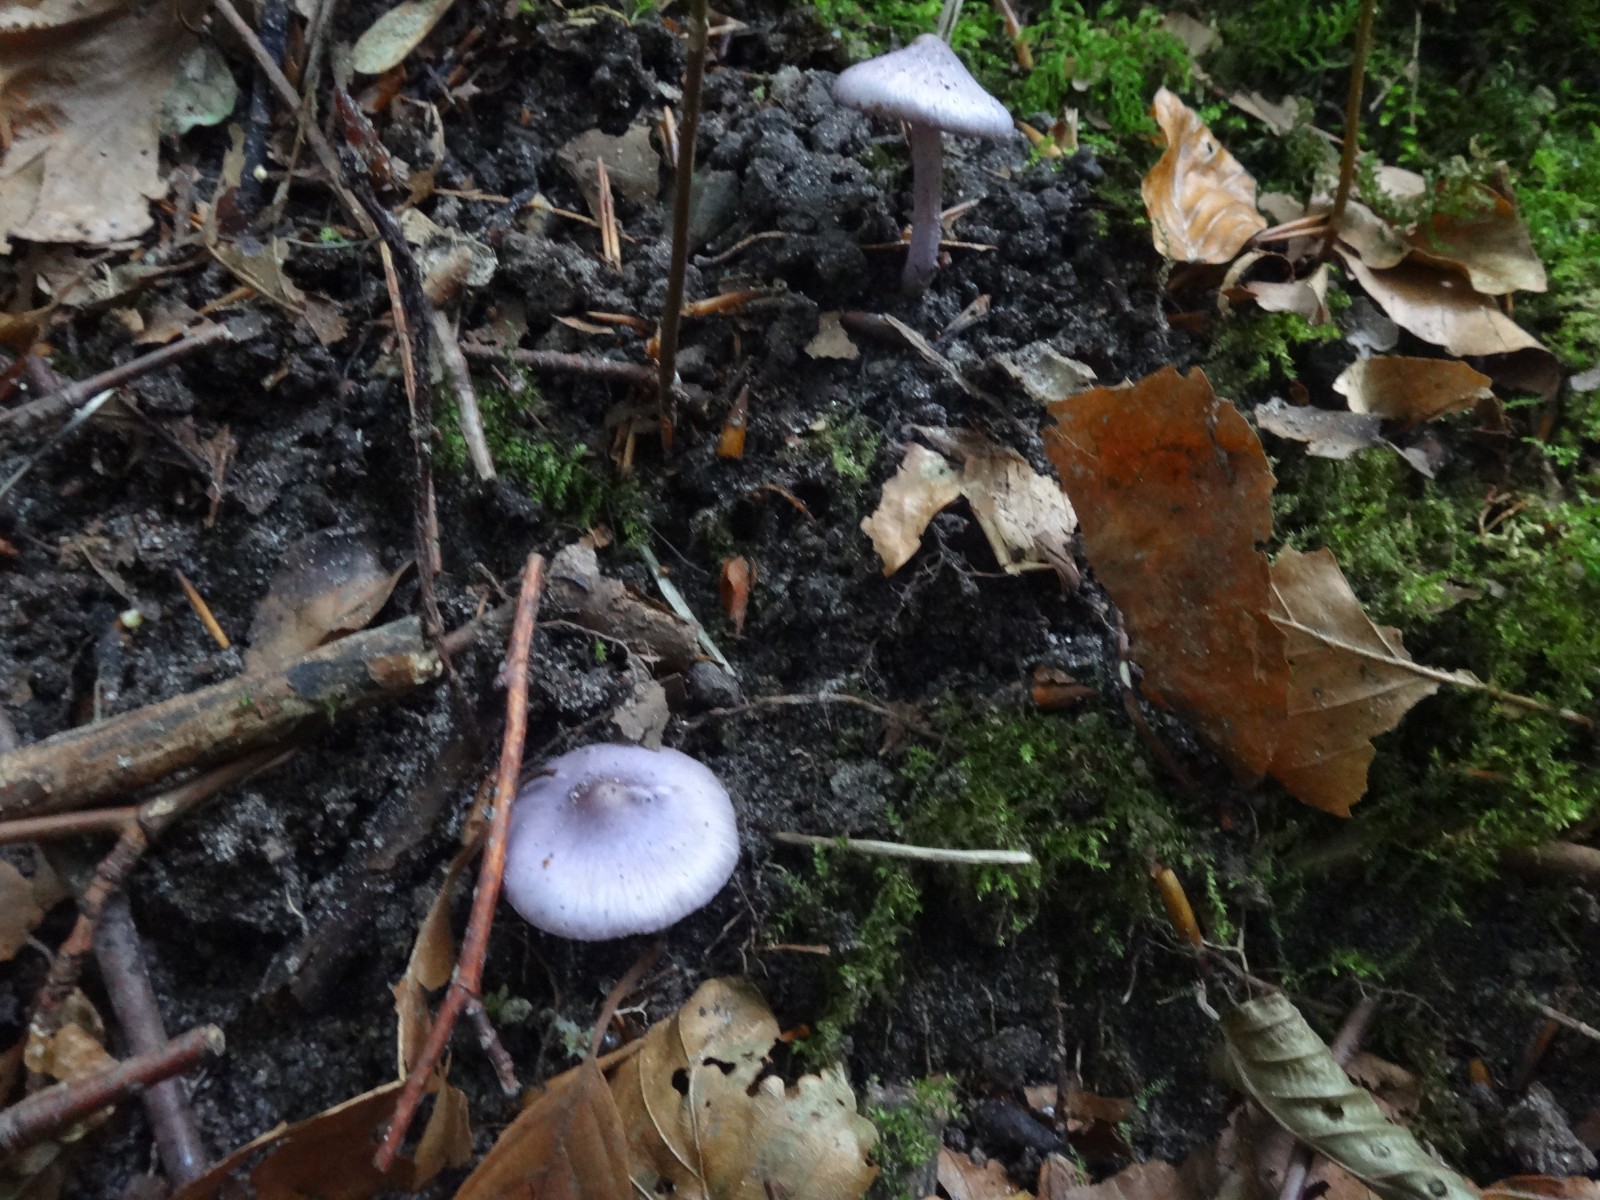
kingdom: Fungi
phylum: Basidiomycota
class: Agaricomycetes
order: Agaricales
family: Inocybaceae
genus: Inocybe
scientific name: Inocybe geophylla
